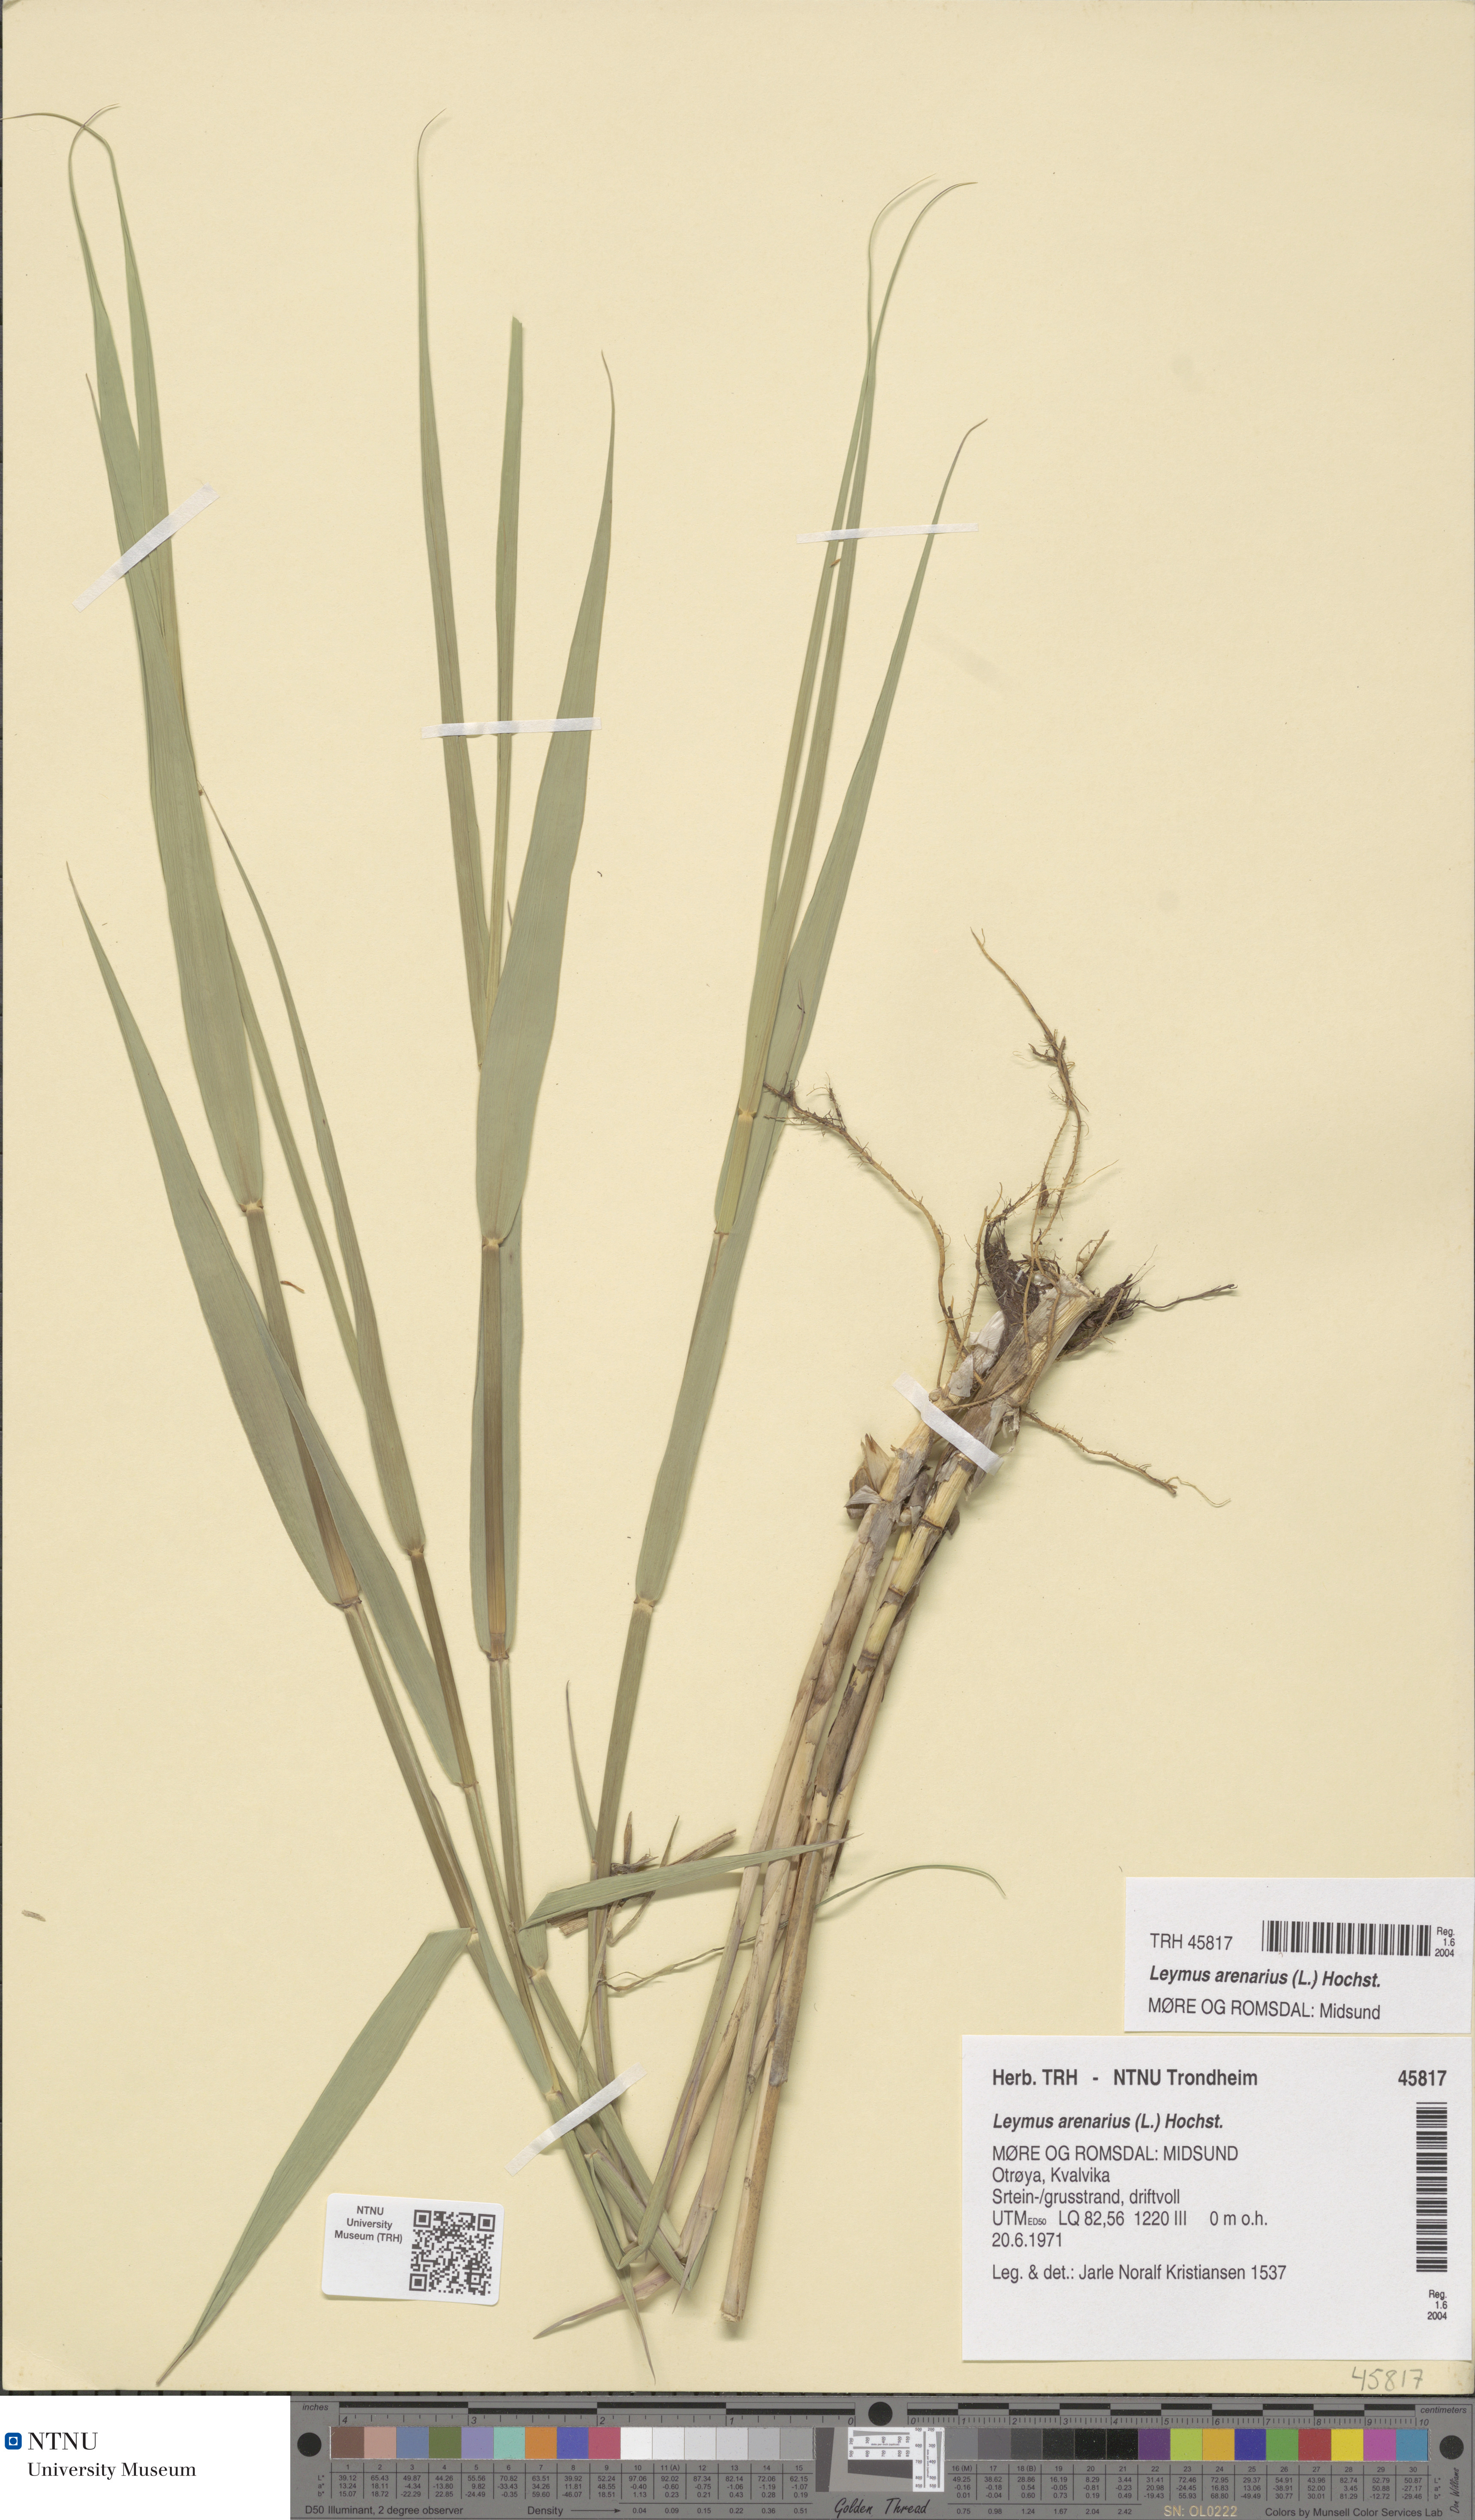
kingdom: Plantae
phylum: Tracheophyta
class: Liliopsida
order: Poales
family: Poaceae
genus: Leymus
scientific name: Leymus arenarius
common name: Lyme-grass
